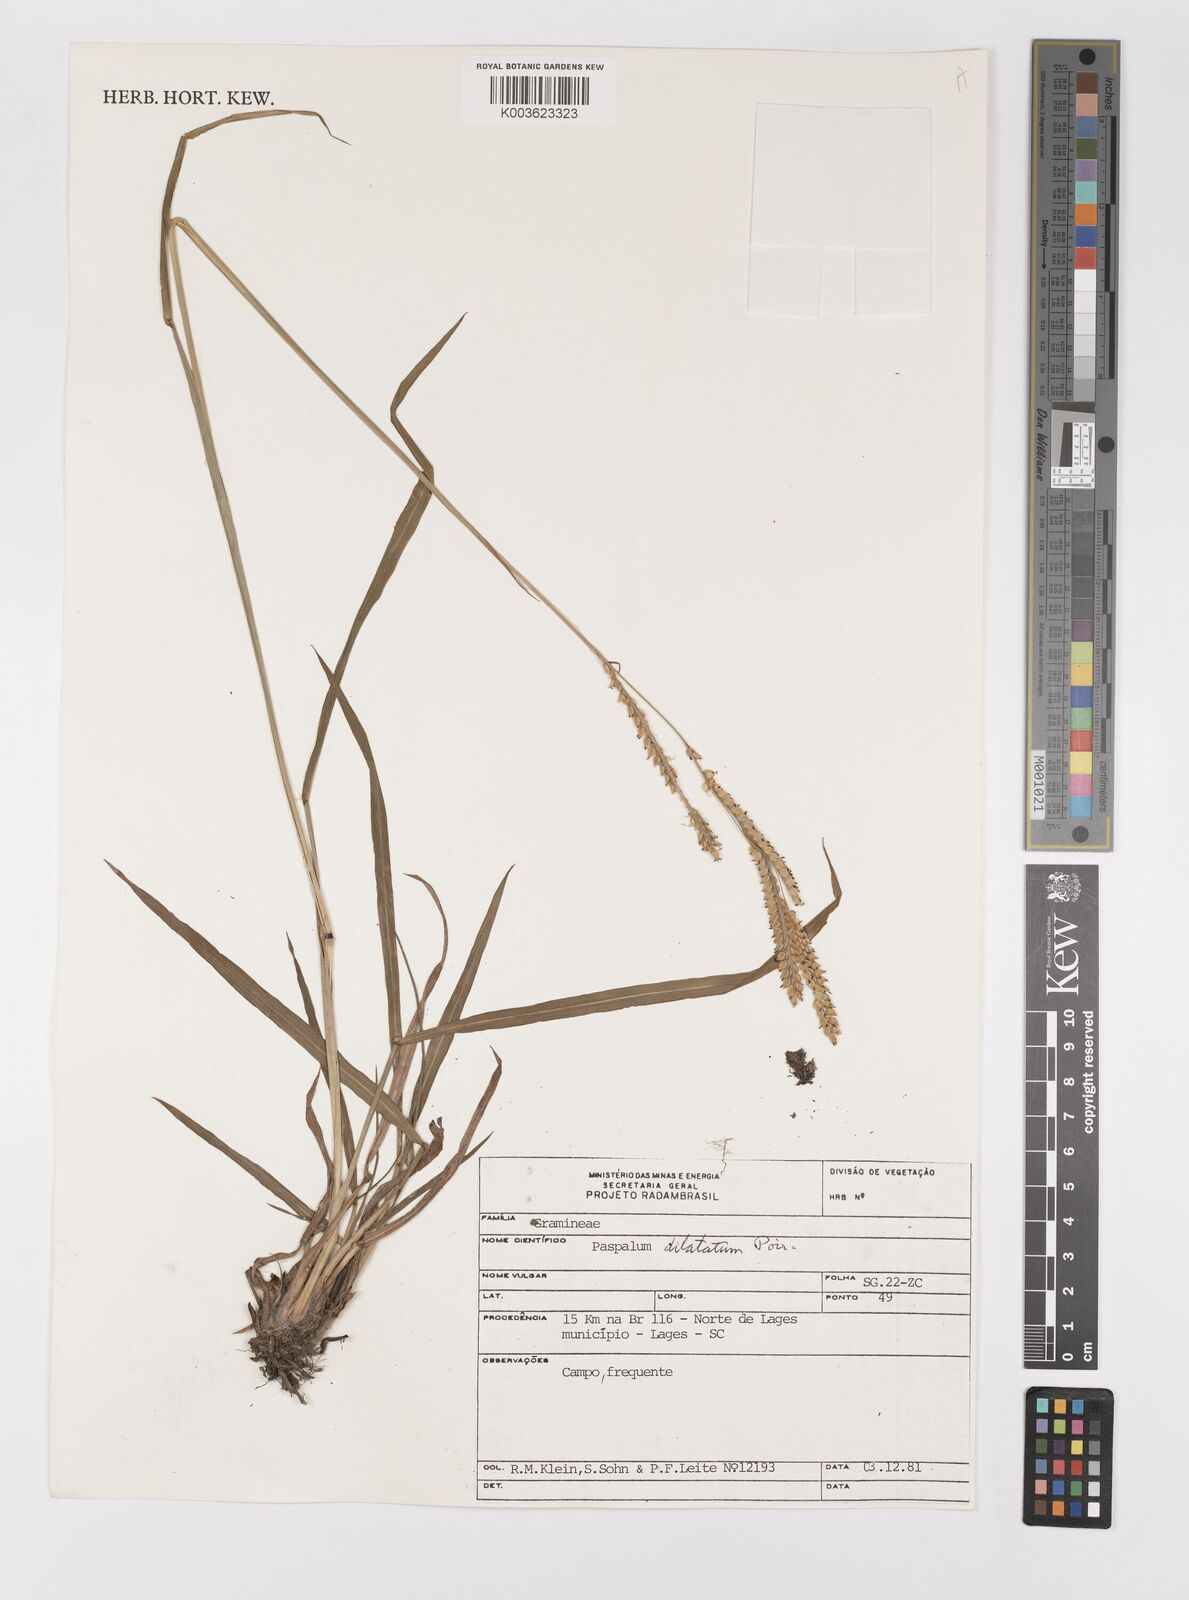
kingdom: Plantae
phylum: Tracheophyta
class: Liliopsida
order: Poales
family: Poaceae
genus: Paspalum
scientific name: Paspalum dilatatum
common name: Dallisgrass
